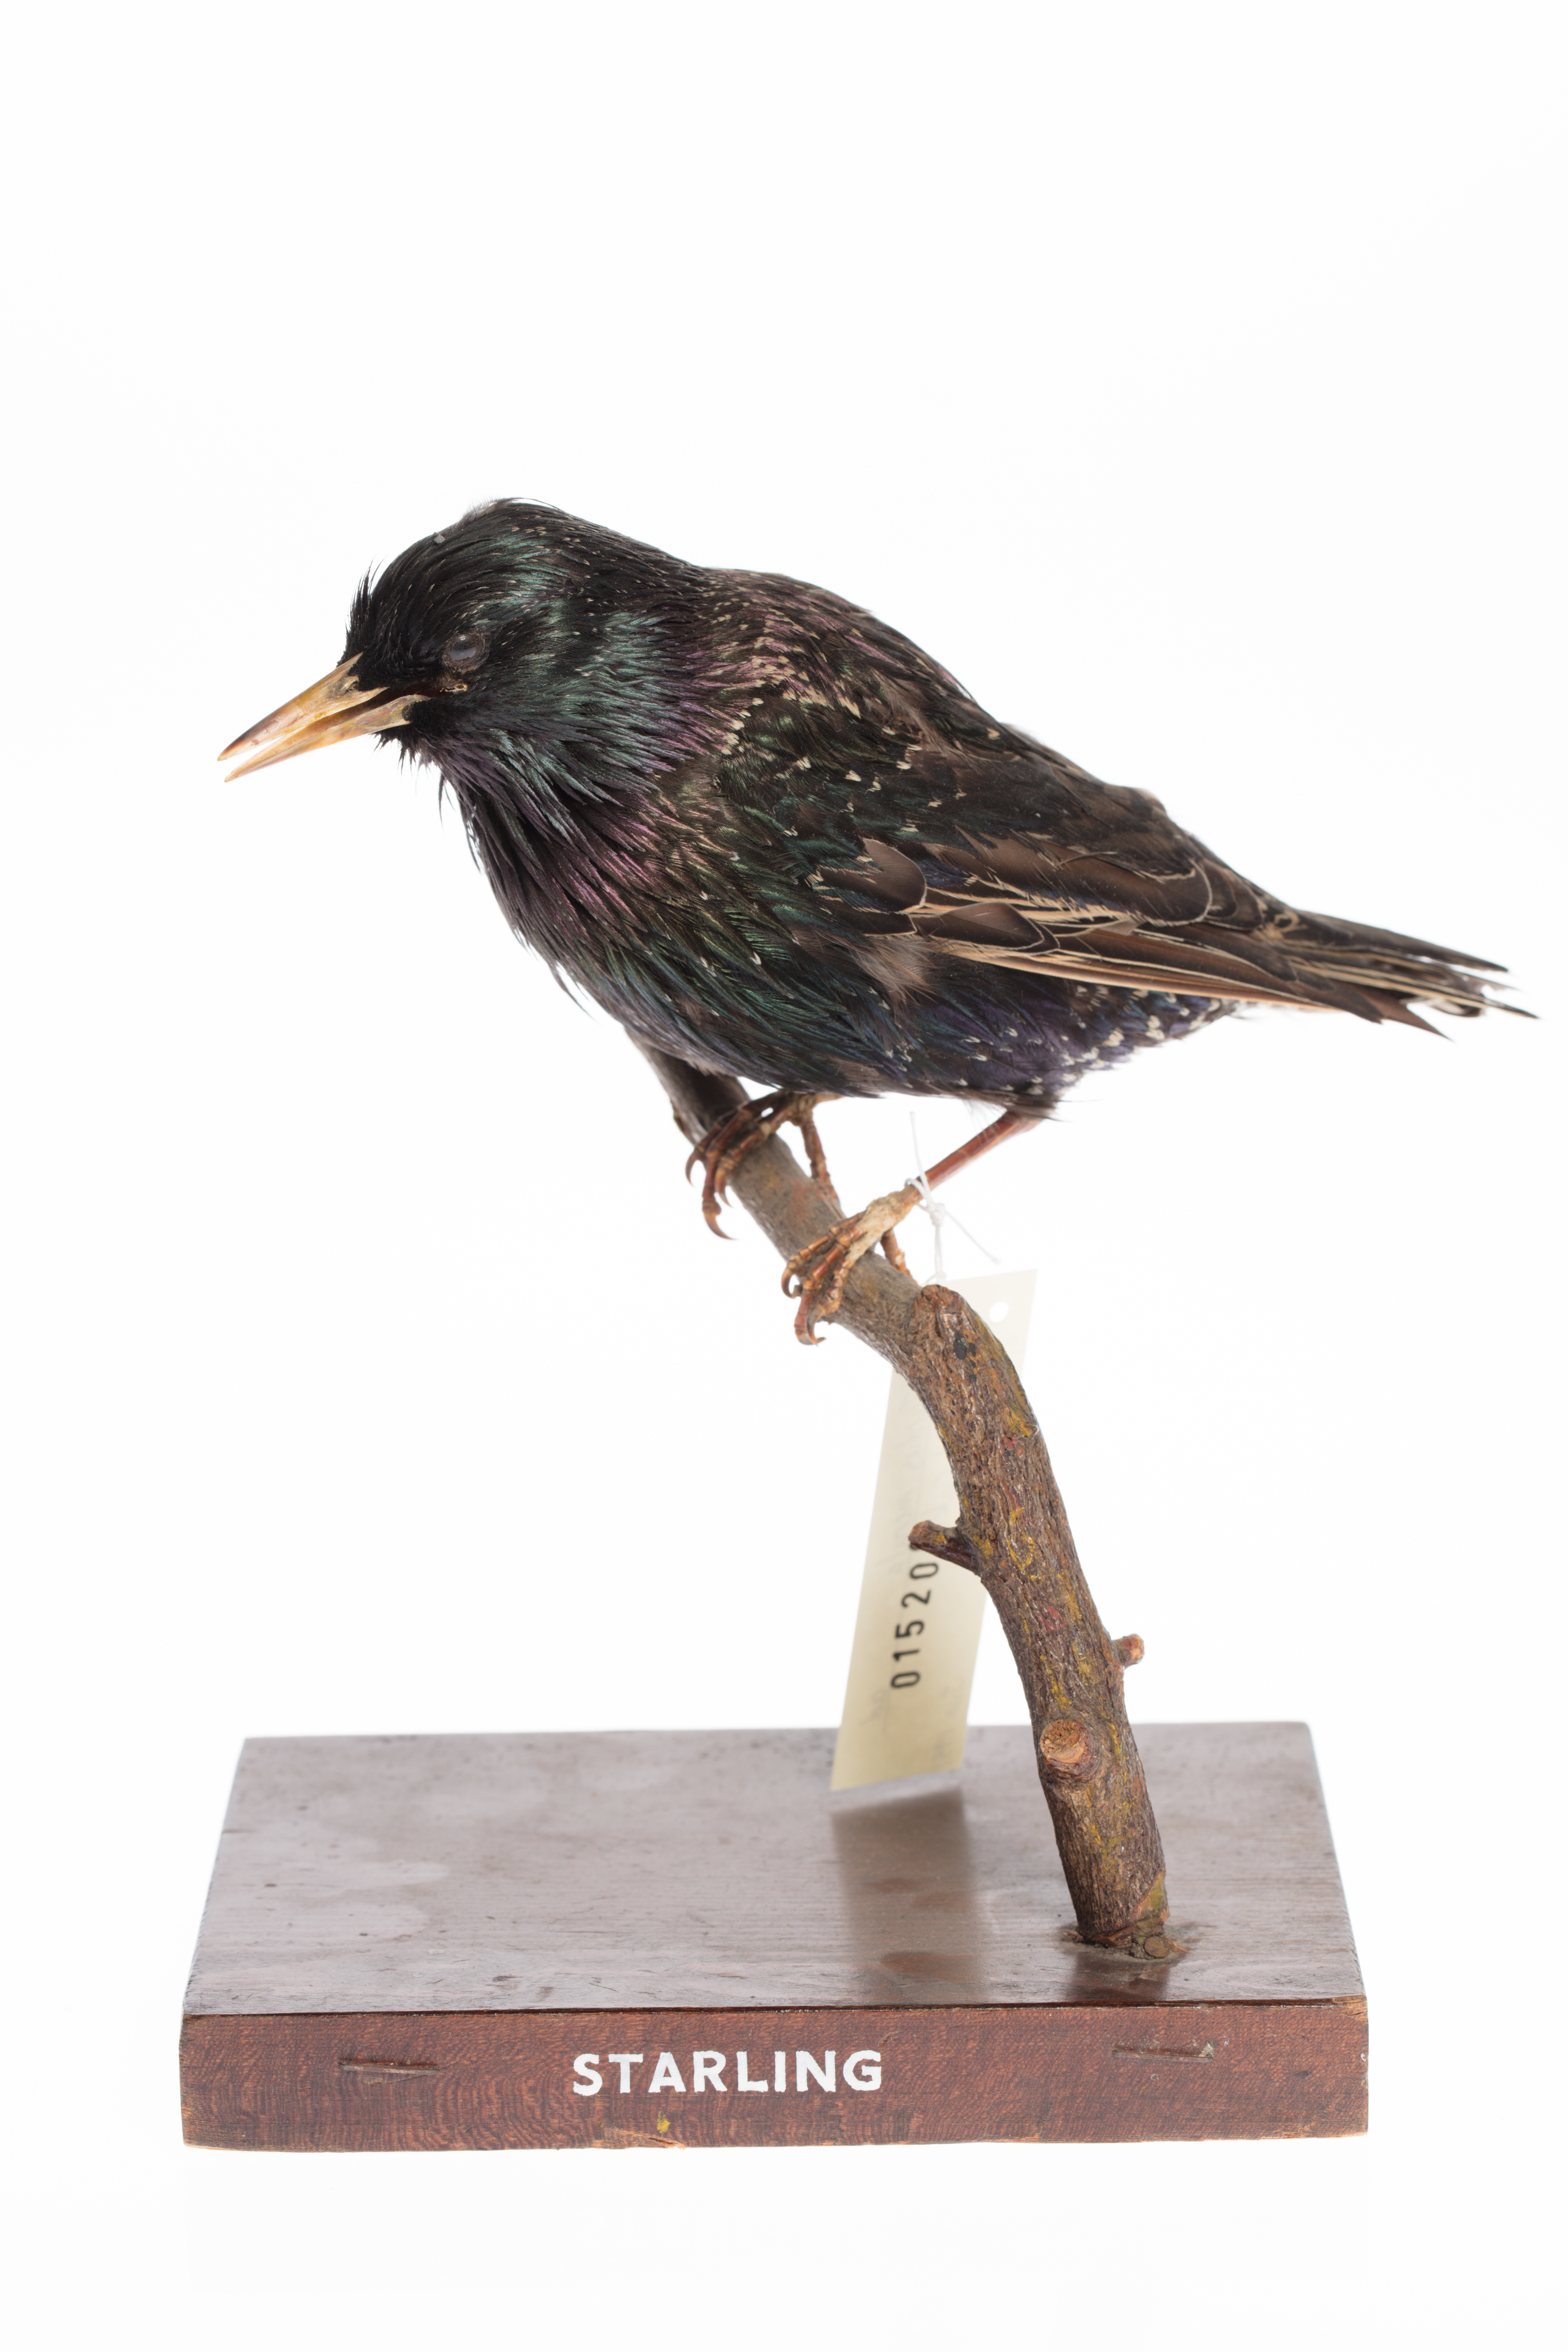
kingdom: Animalia
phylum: Chordata
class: Aves
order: Passeriformes
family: Sturnidae
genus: Sturnus
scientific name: Sturnus vulgaris
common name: Common starling
